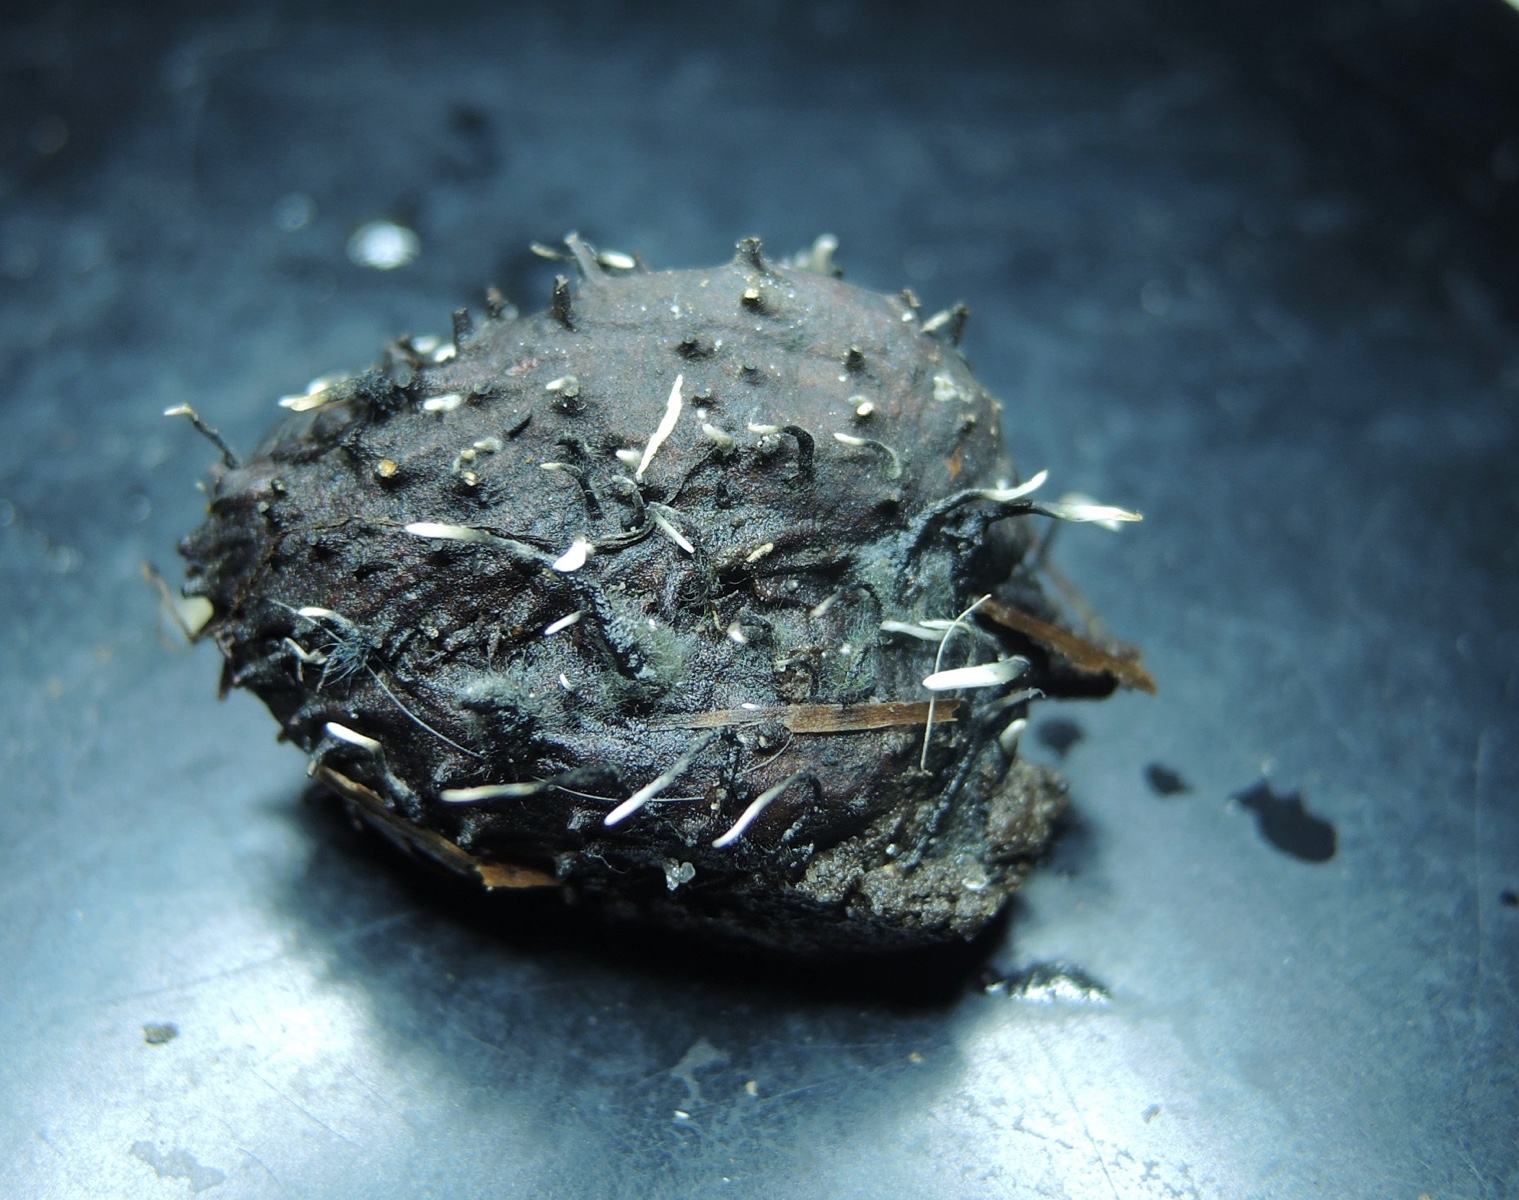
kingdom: Fungi
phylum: Ascomycota
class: Sordariomycetes
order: Xylariales
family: Xylariaceae
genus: Xylaria
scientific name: Xylaria carpophila
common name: bogskål-stødsvamp
